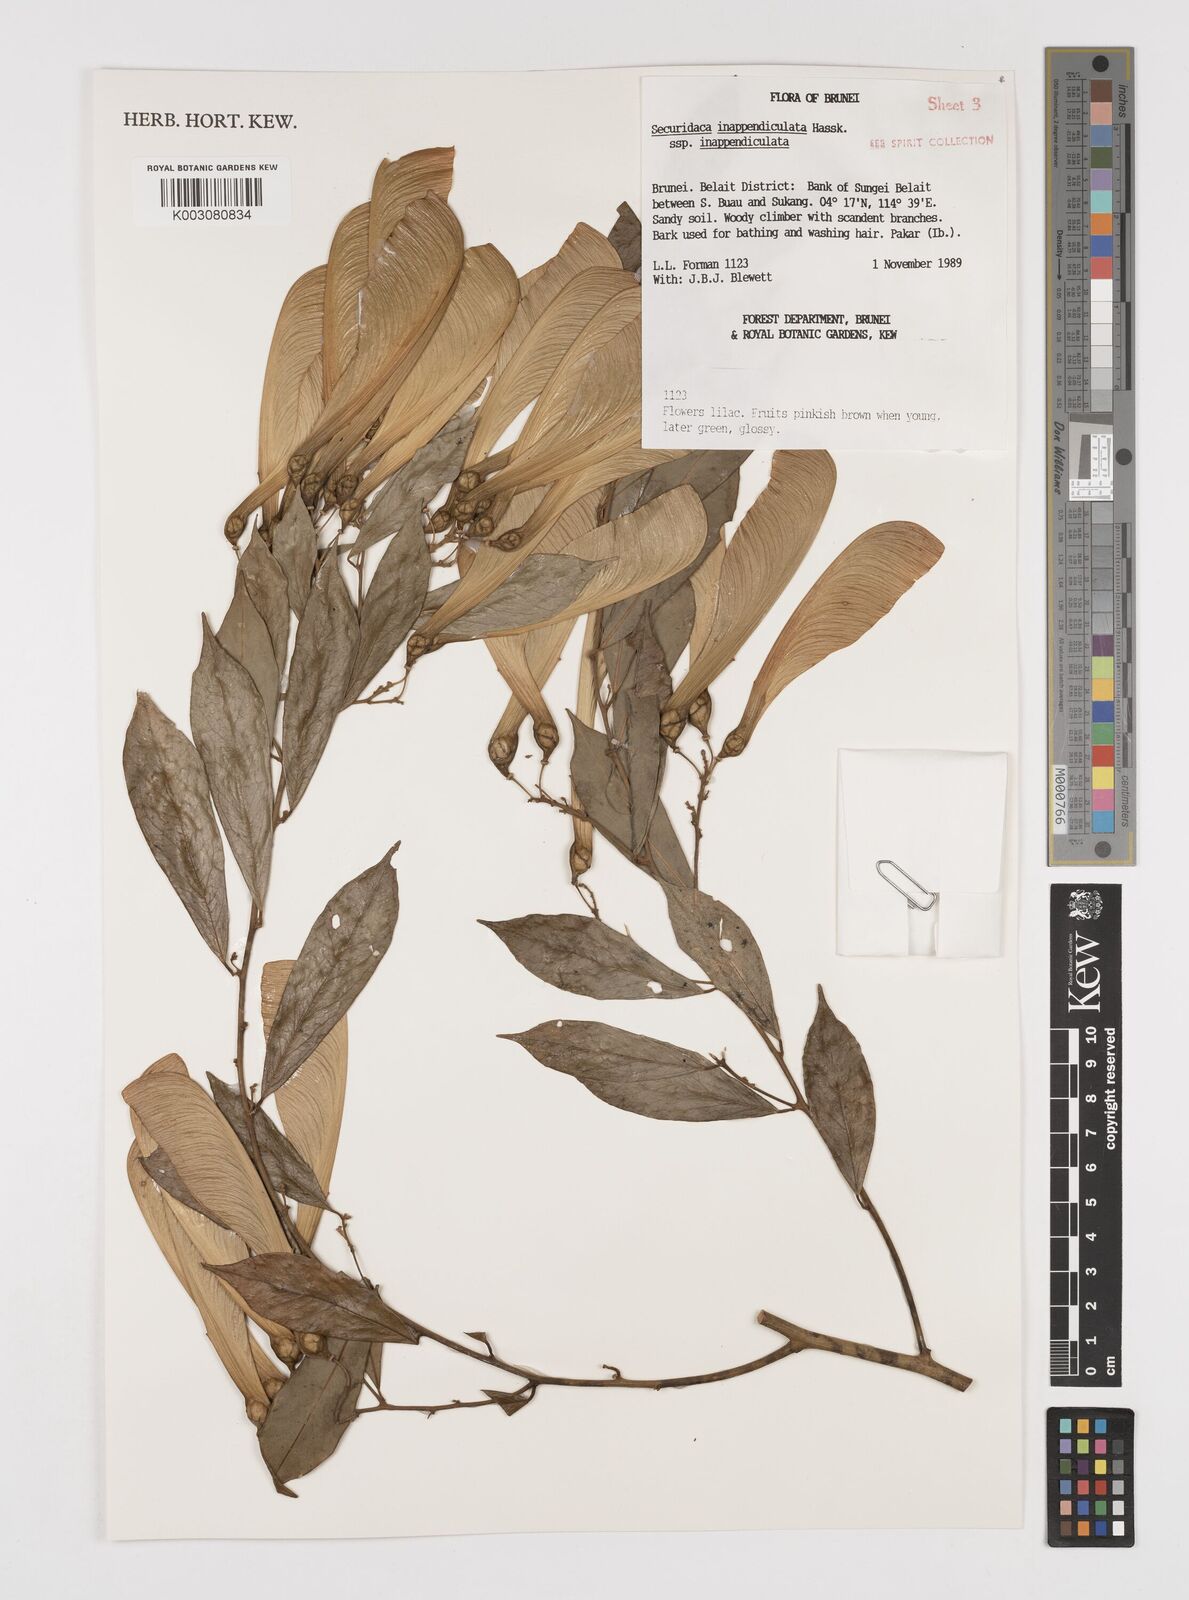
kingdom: Plantae
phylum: Tracheophyta
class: Magnoliopsida
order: Fabales
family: Polygalaceae
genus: Securidaca
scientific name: Securidaca inappendiculata
